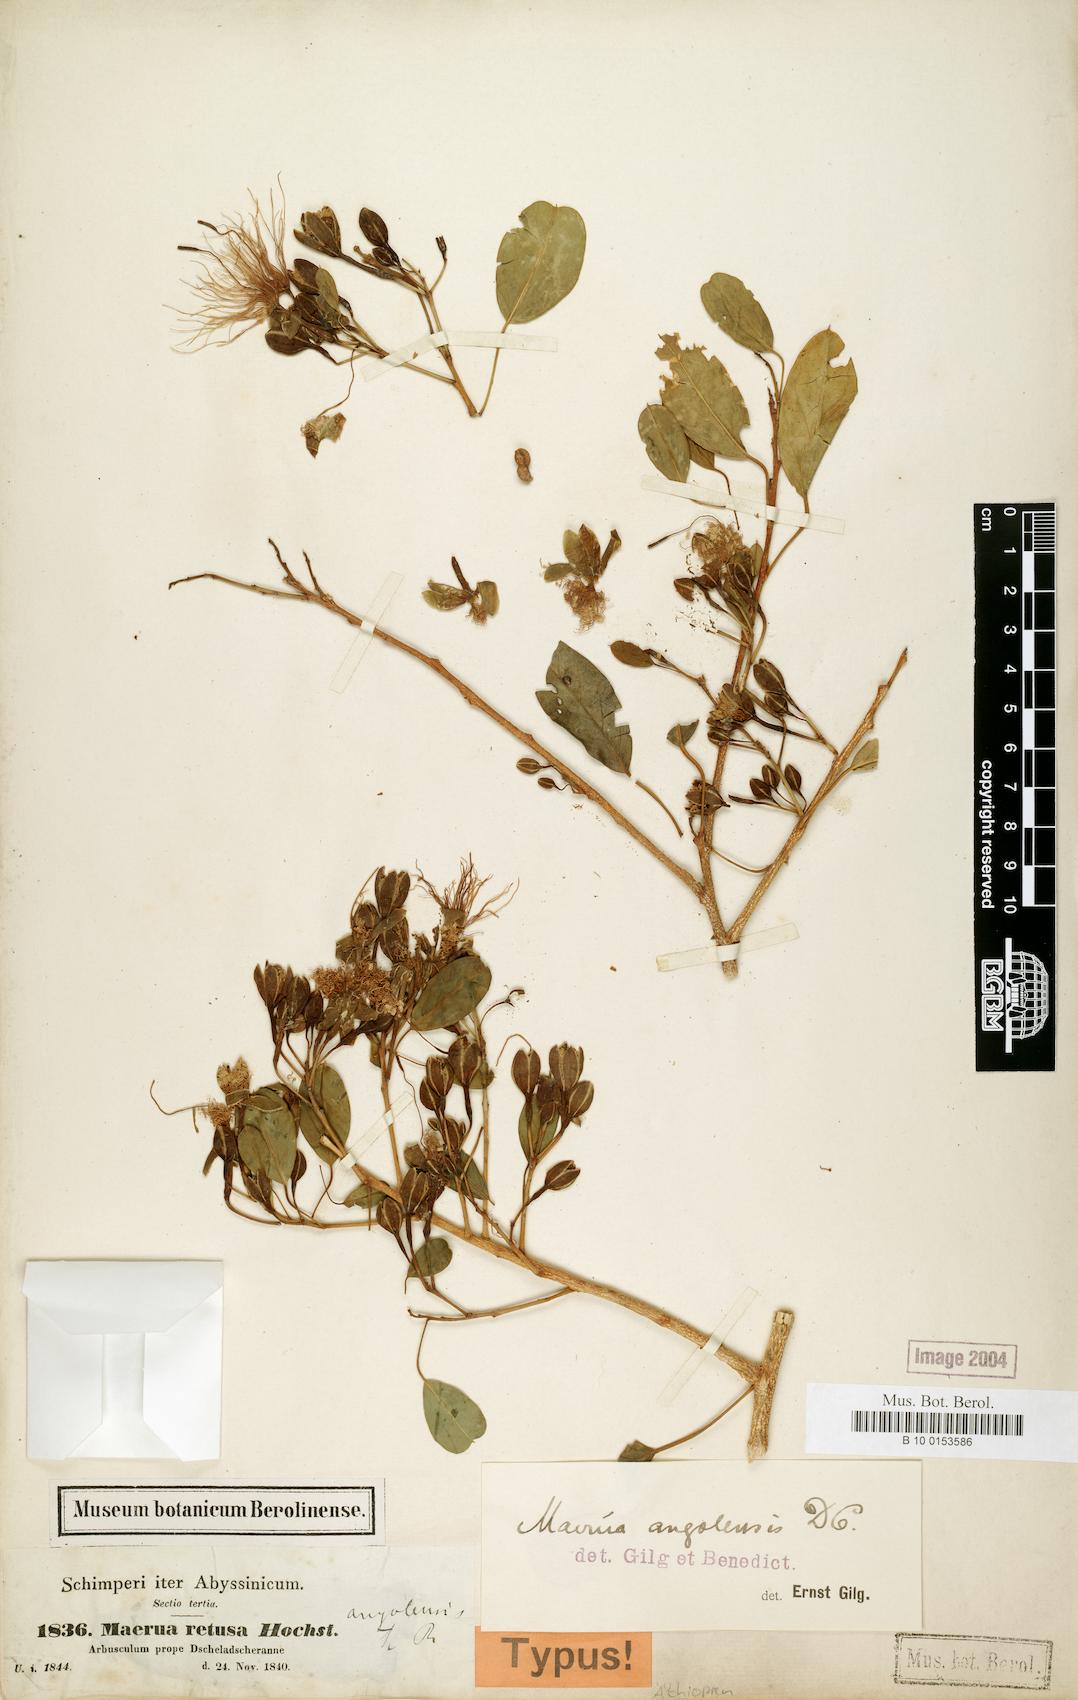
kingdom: Plantae
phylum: Tracheophyta
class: Magnoliopsida
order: Brassicales
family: Capparaceae
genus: Maerua
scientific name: Maerua angolensis
